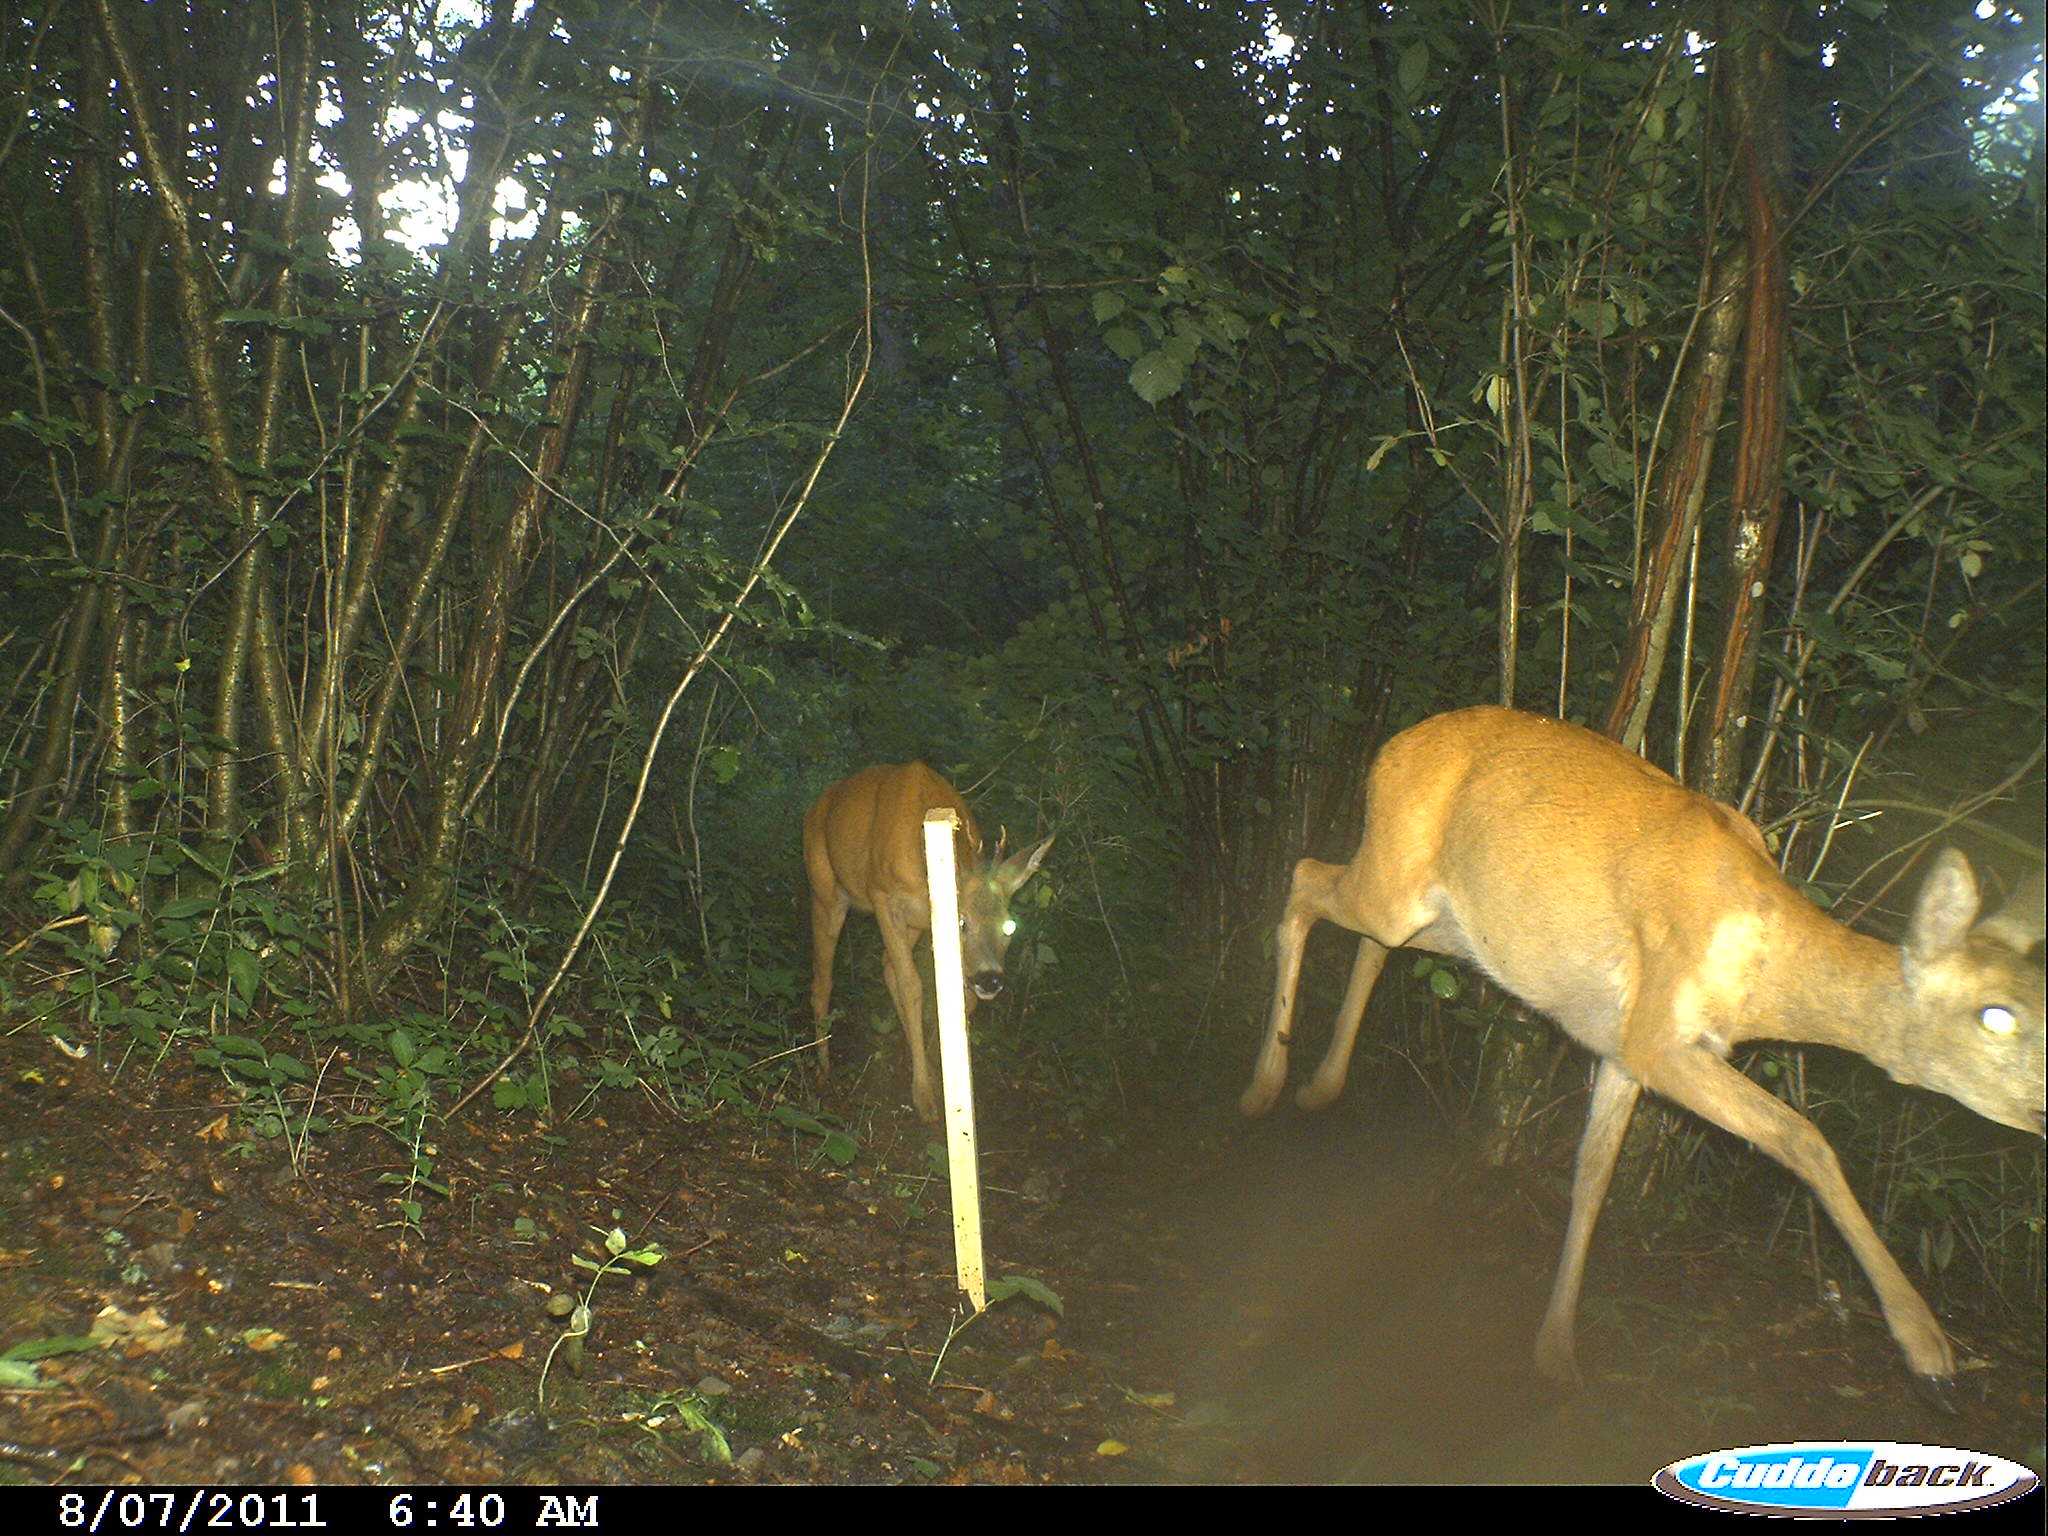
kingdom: Animalia
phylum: Chordata
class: Mammalia
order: Artiodactyla
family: Cervidae
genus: Capreolus
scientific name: Capreolus capreolus
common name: Western roe deer
